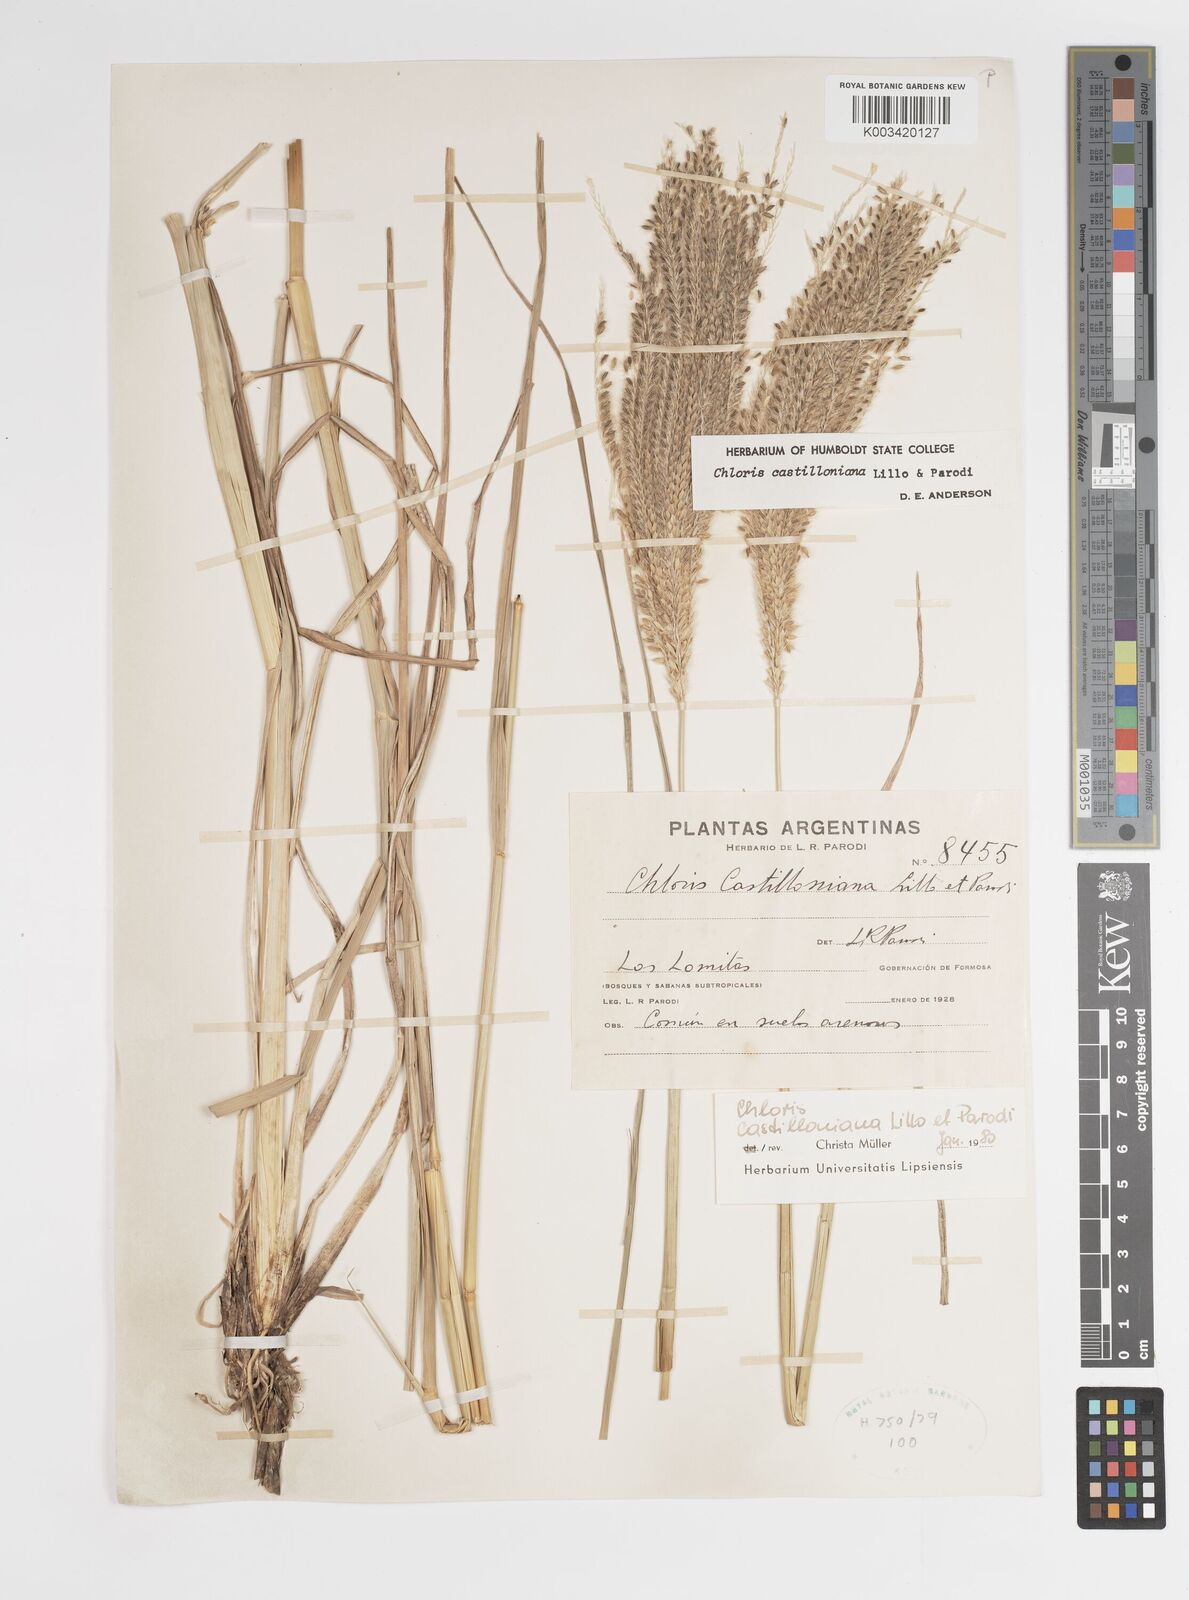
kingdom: Plantae
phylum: Tracheophyta
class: Liliopsida
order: Poales
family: Poaceae
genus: Chloris
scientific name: Chloris castilloniana
